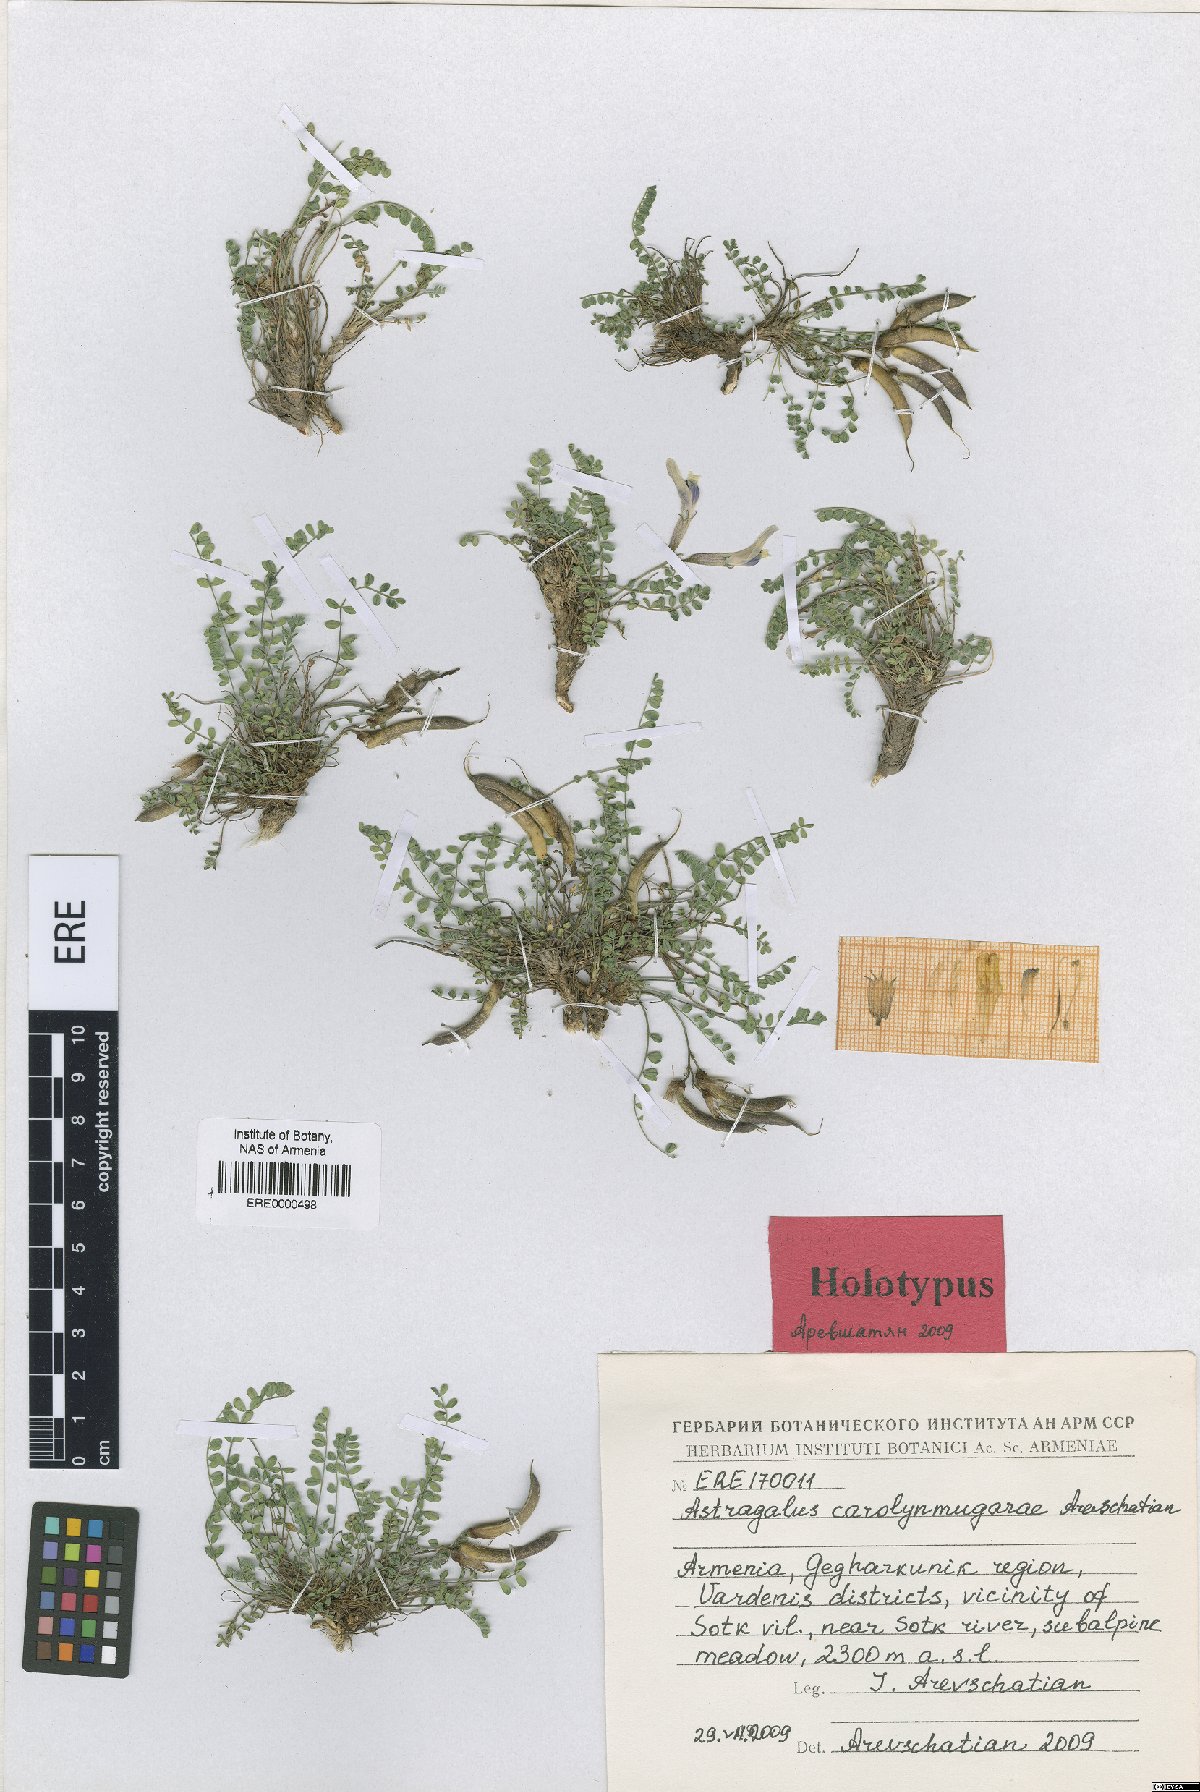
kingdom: Plantae
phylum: Tracheophyta
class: Magnoliopsida
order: Fabales
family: Fabaceae
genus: Astragalus
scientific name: Astragalus carolynmugariae
